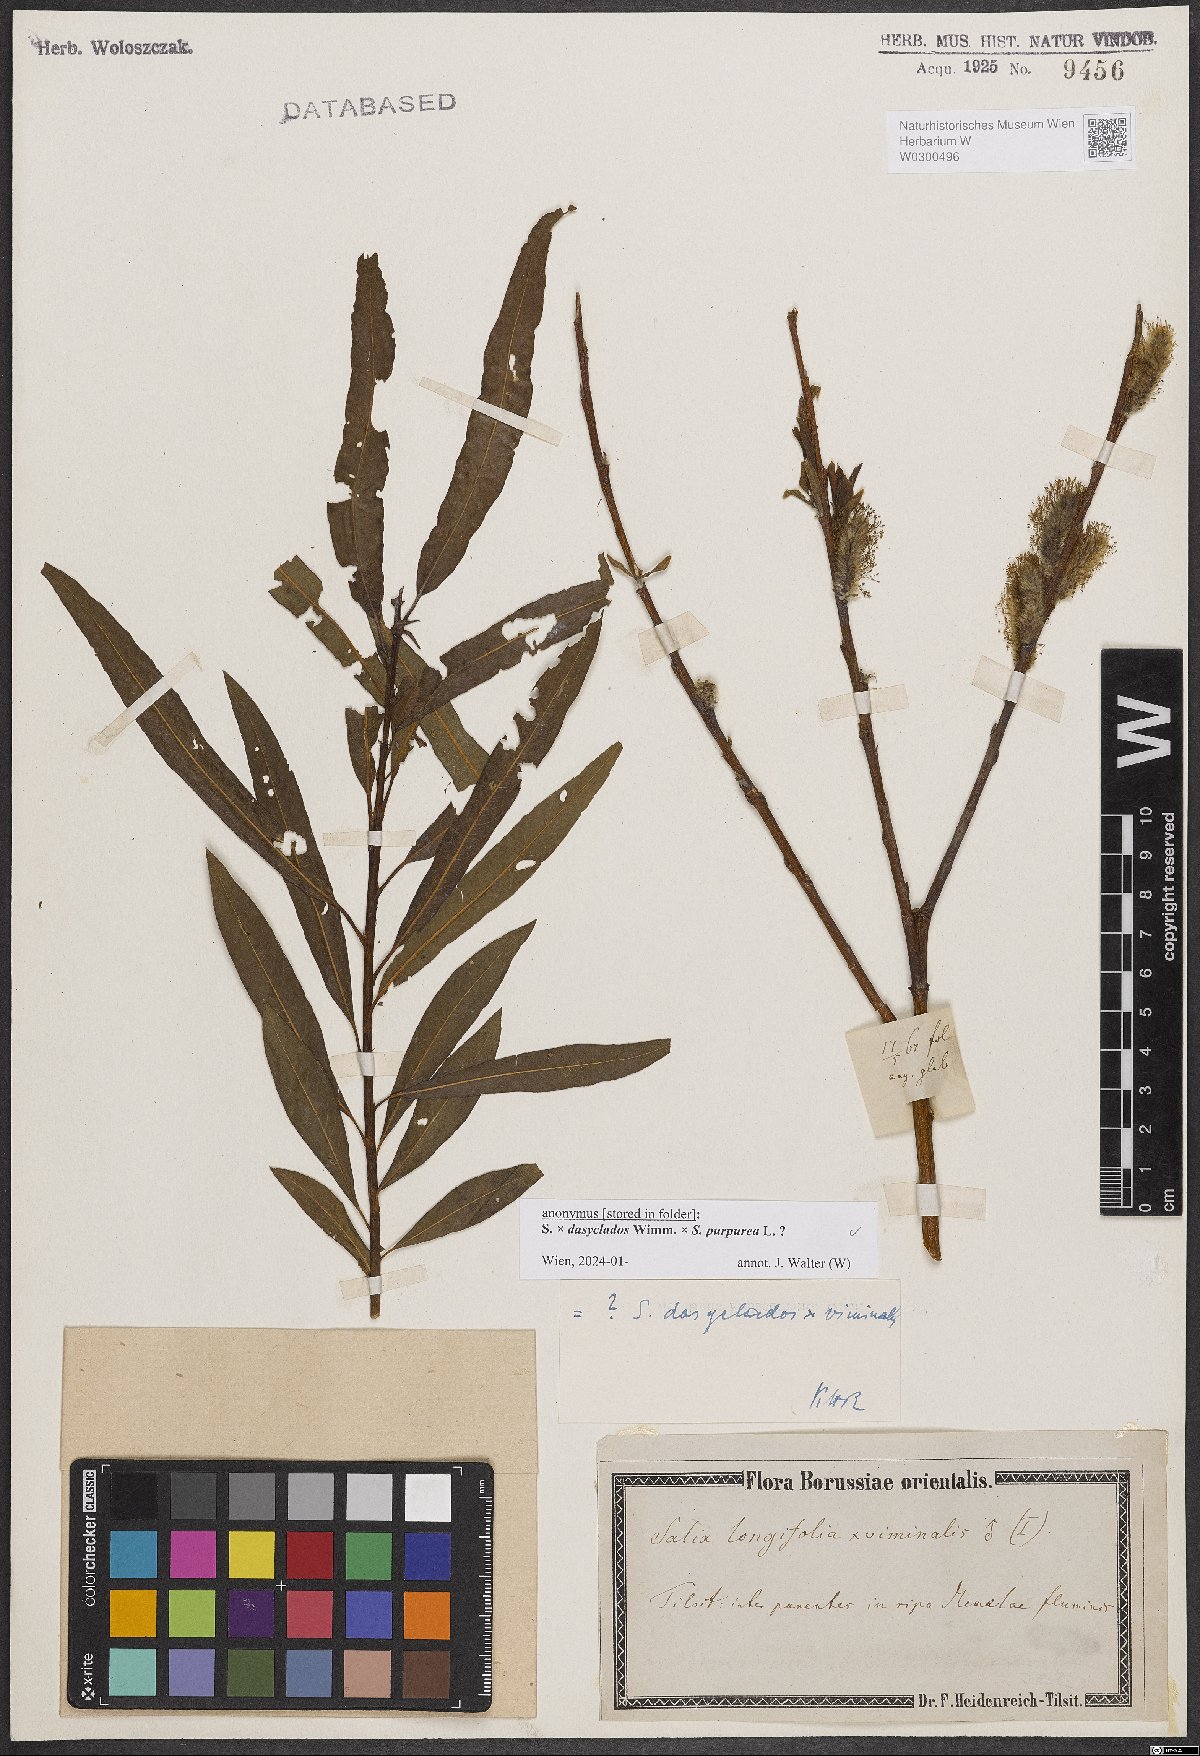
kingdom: Plantae
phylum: Tracheophyta
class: Magnoliopsida
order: Malpighiales
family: Salicaceae
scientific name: Salicaceae
